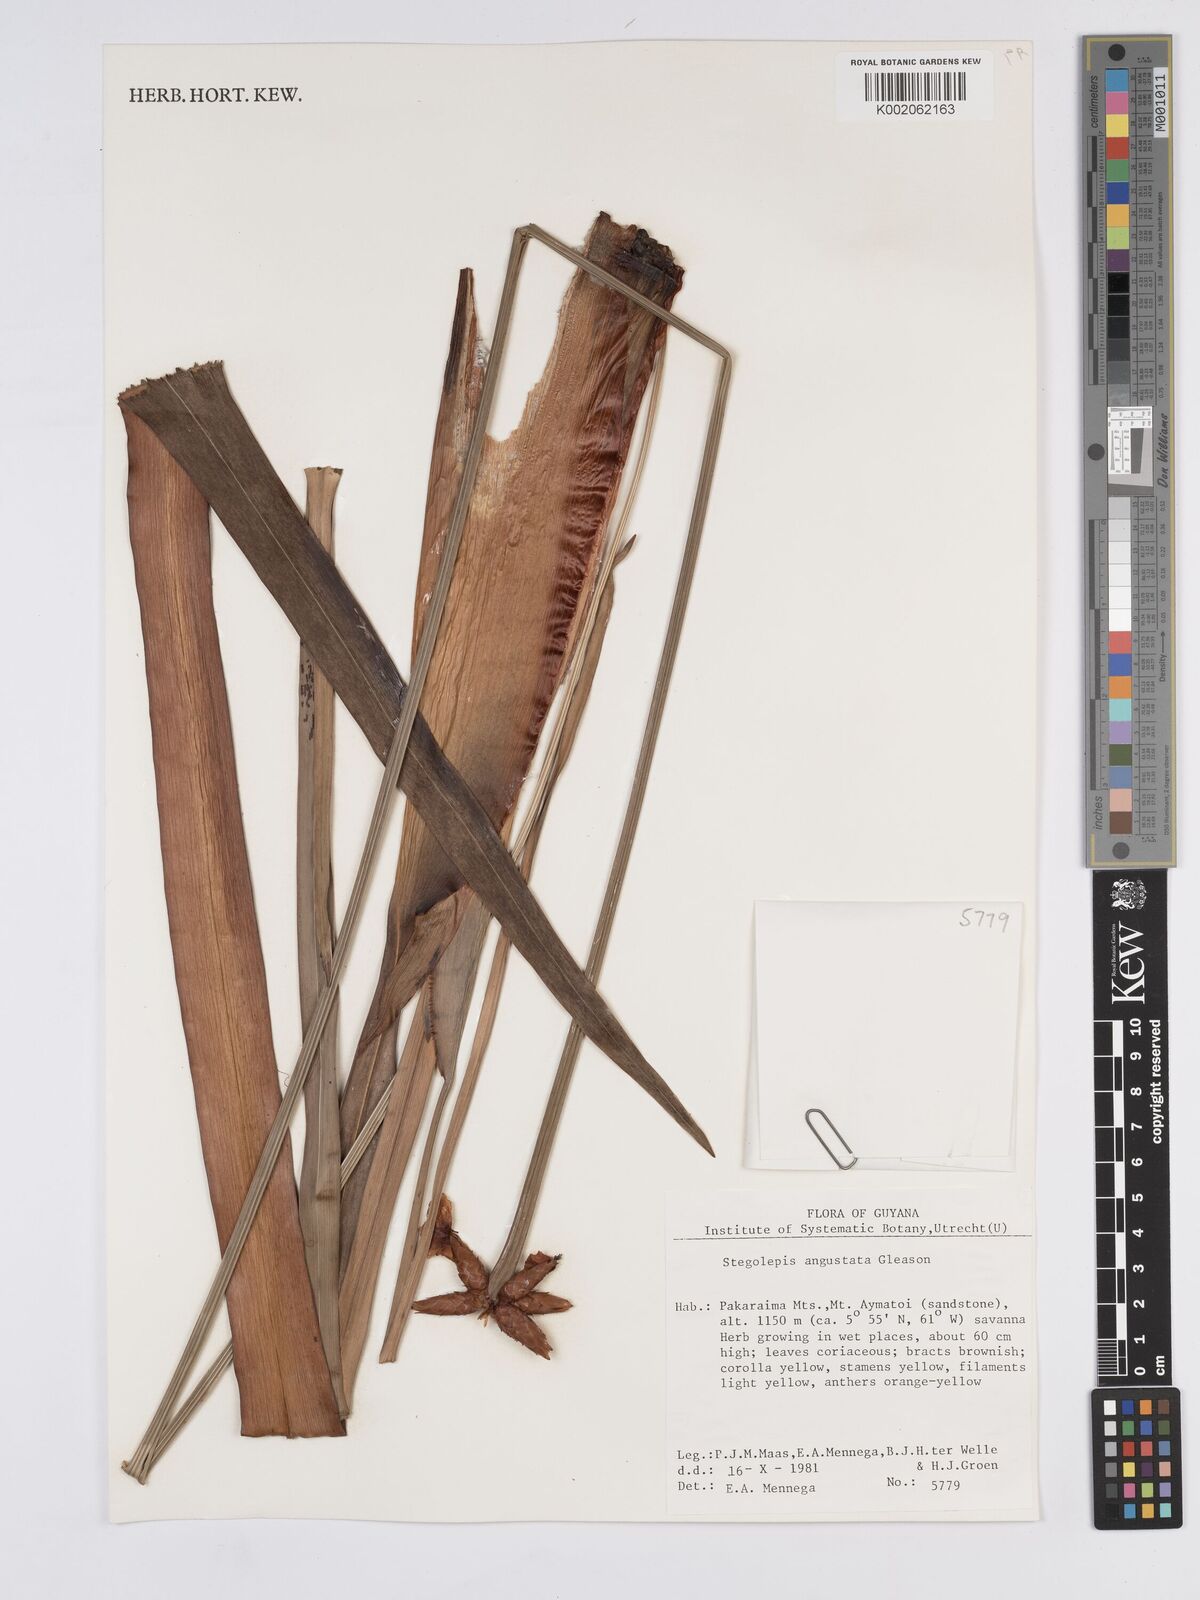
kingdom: Plantae
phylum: Tracheophyta
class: Liliopsida
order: Poales
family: Rapateaceae
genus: Stegolepis
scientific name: Stegolepis angustata
